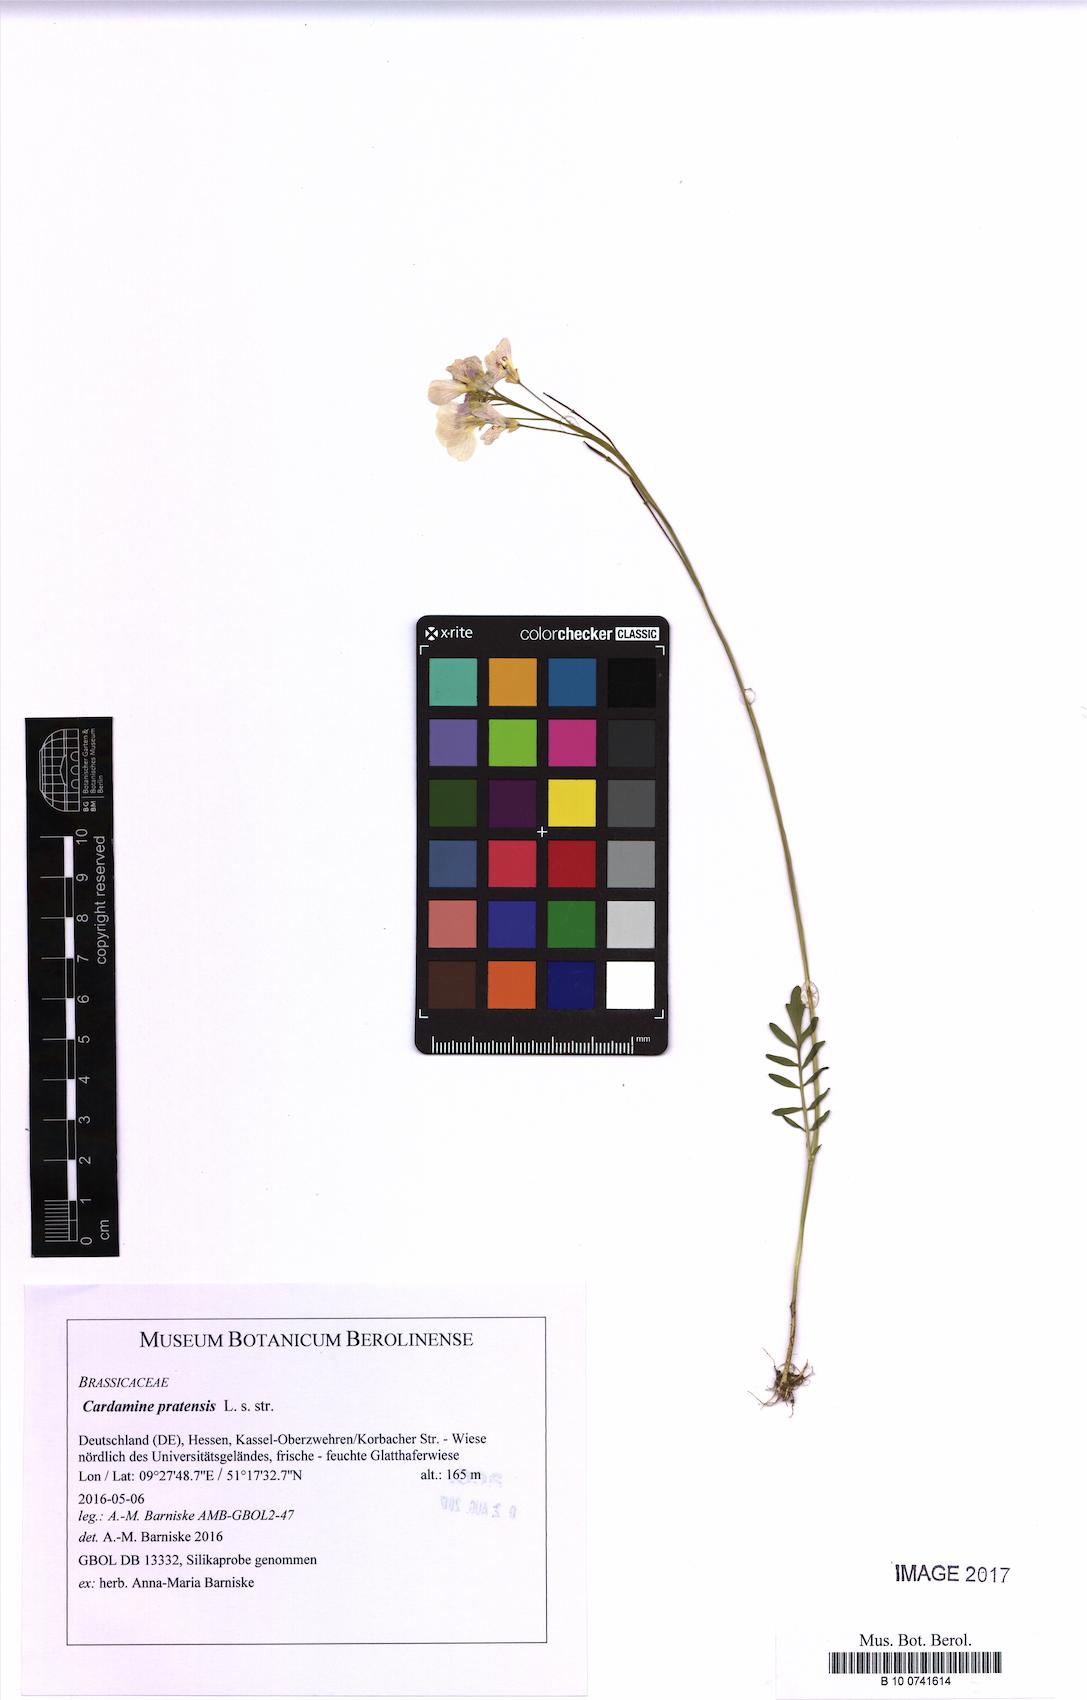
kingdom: Plantae
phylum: Tracheophyta
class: Magnoliopsida
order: Brassicales
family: Brassicaceae
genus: Cardamine
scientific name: Cardamine pratensis
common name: Cuckoo flower
